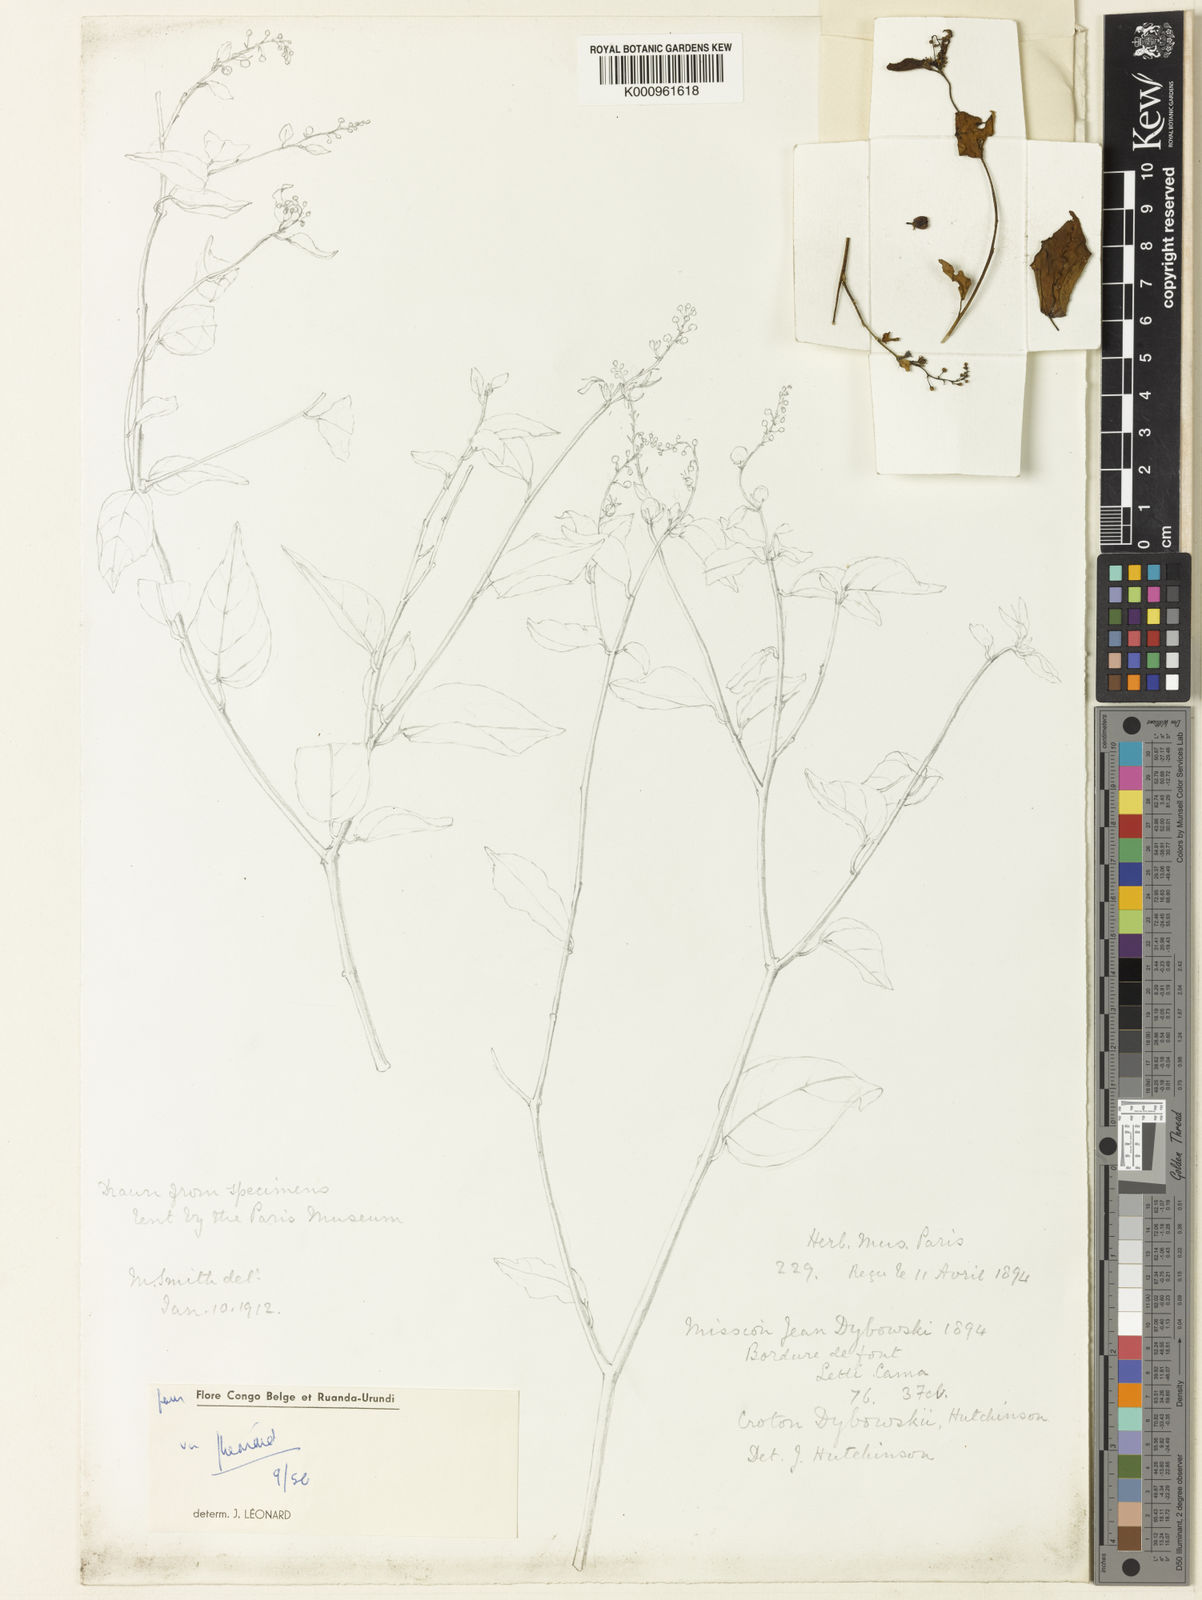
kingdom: Plantae
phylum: Tracheophyta
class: Magnoliopsida
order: Malpighiales
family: Euphorbiaceae
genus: Croton
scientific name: Croton dybowskii
